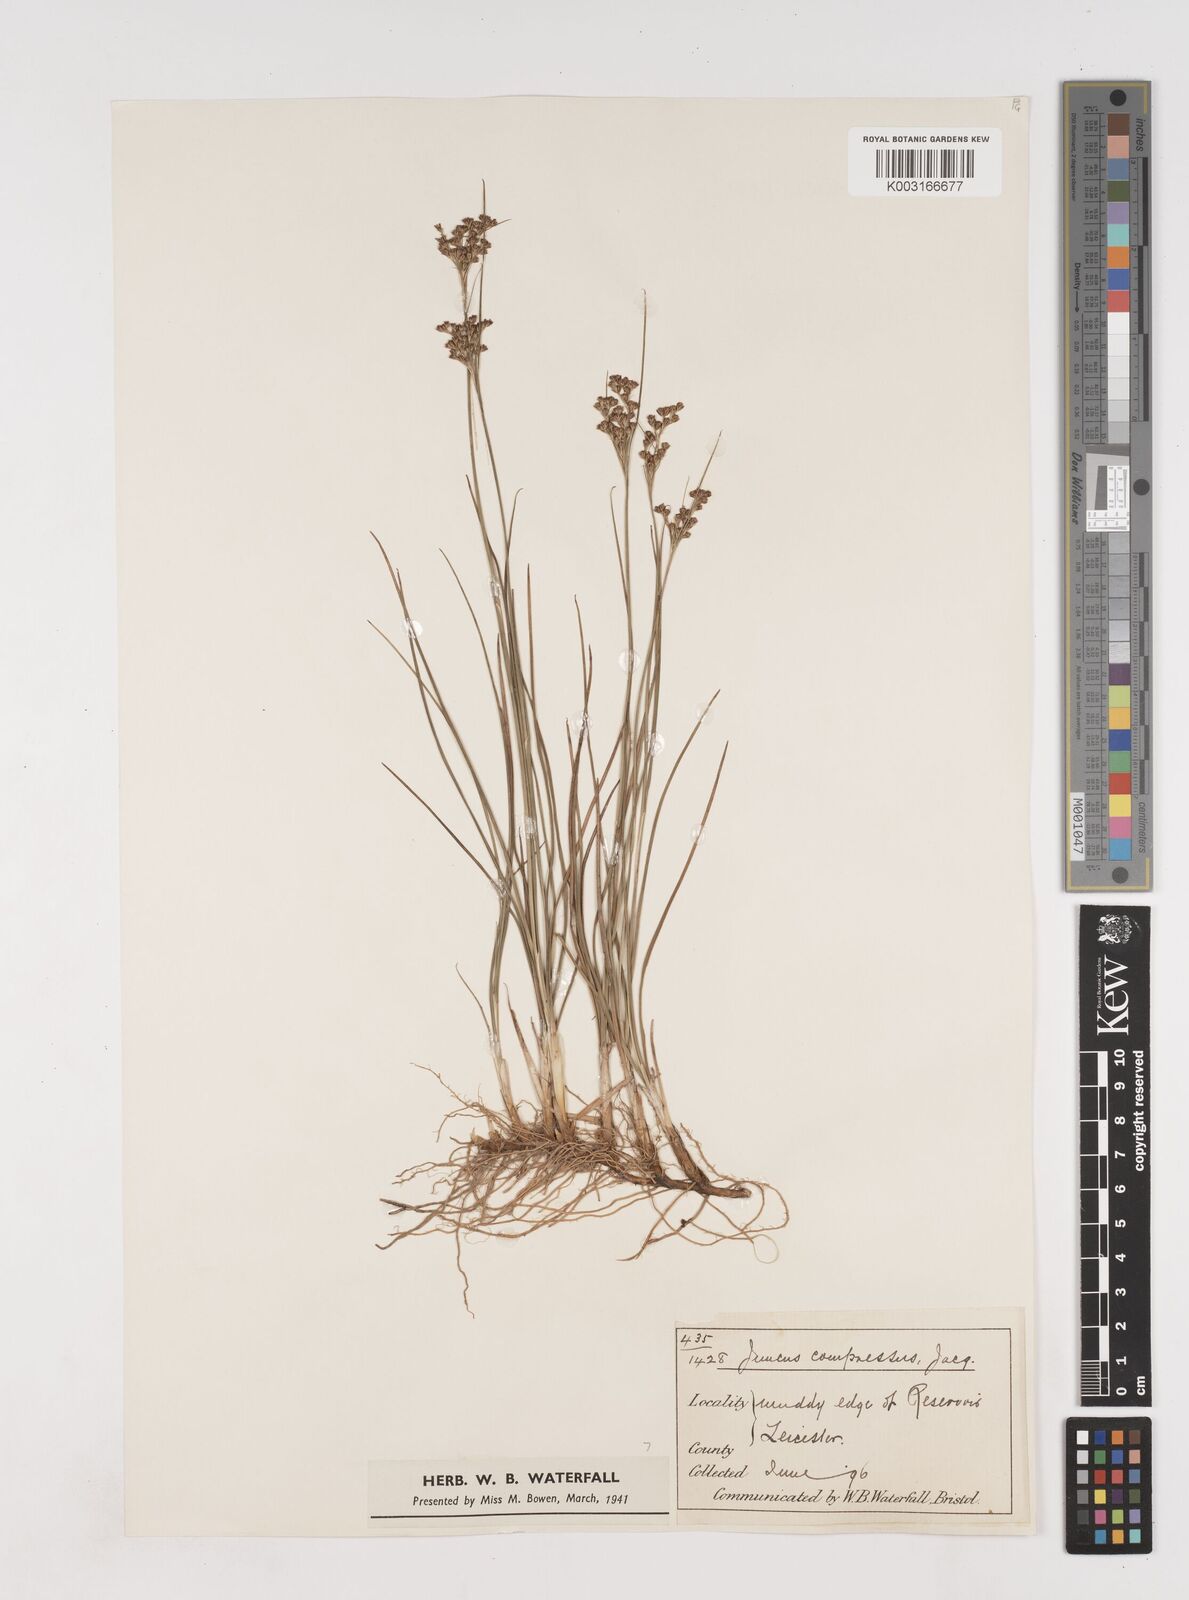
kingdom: Plantae
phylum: Tracheophyta
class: Liliopsida
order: Poales
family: Juncaceae
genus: Juncus
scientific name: Juncus compressus
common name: Round-fruited rush
